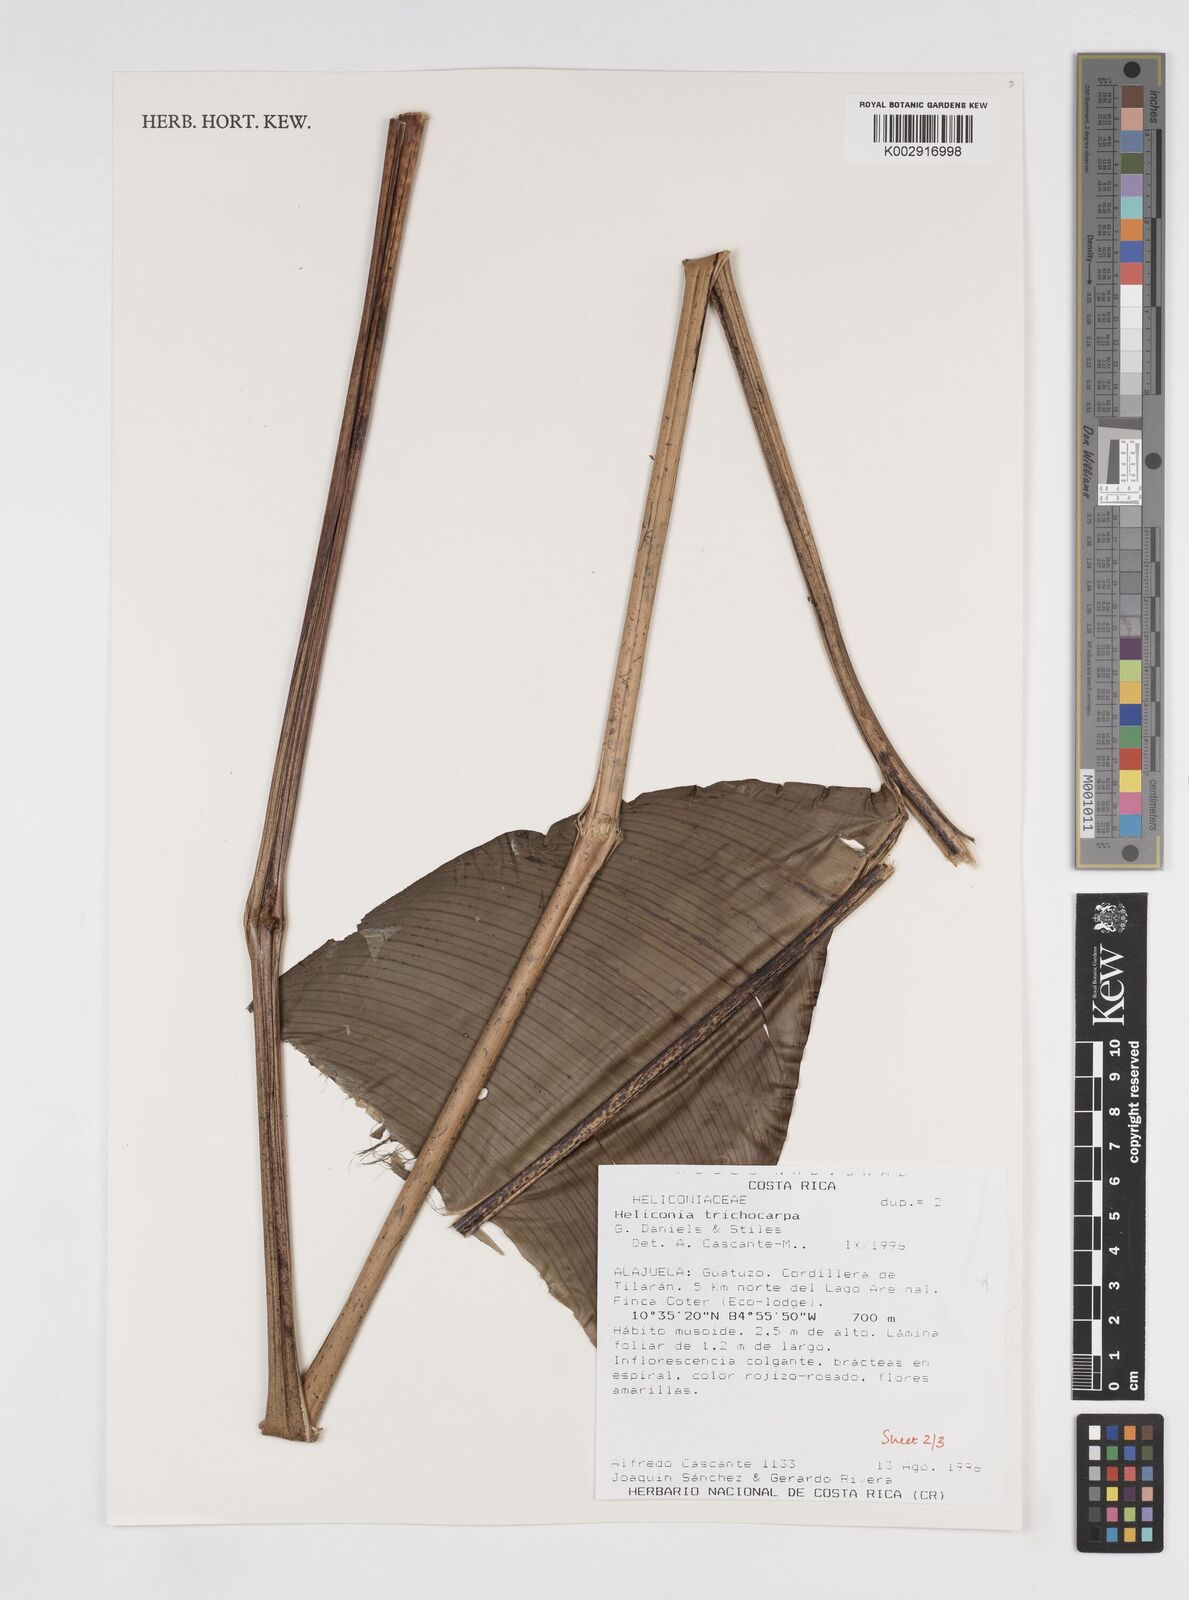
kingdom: Plantae
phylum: Tracheophyta
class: Liliopsida
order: Zingiberales
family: Heliconiaceae
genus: Heliconia
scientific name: Heliconia trichocarpa
